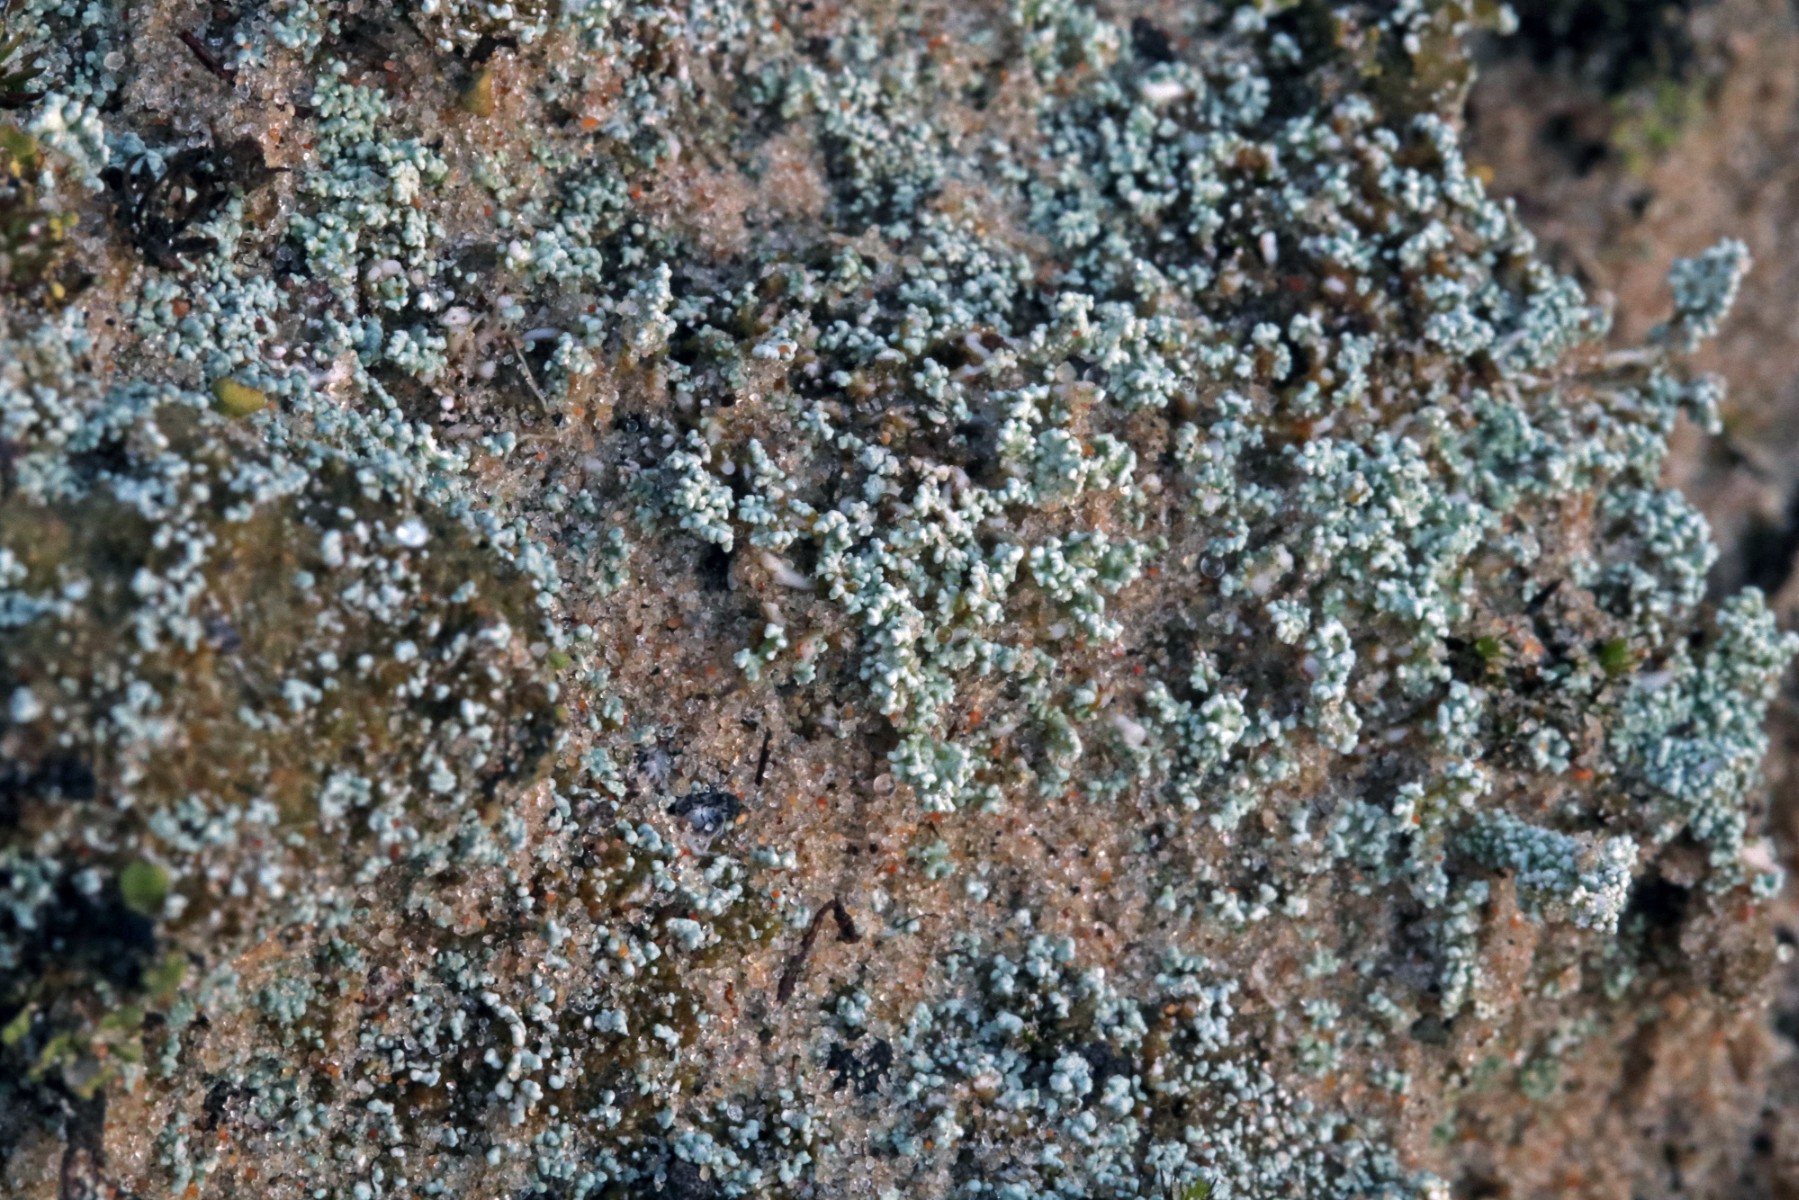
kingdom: Fungi
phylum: Ascomycota
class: Lecanoromycetes
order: Lecanorales
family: Stereocaulaceae
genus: Stereocaulon
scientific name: Stereocaulon condensatum
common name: lav korallav
